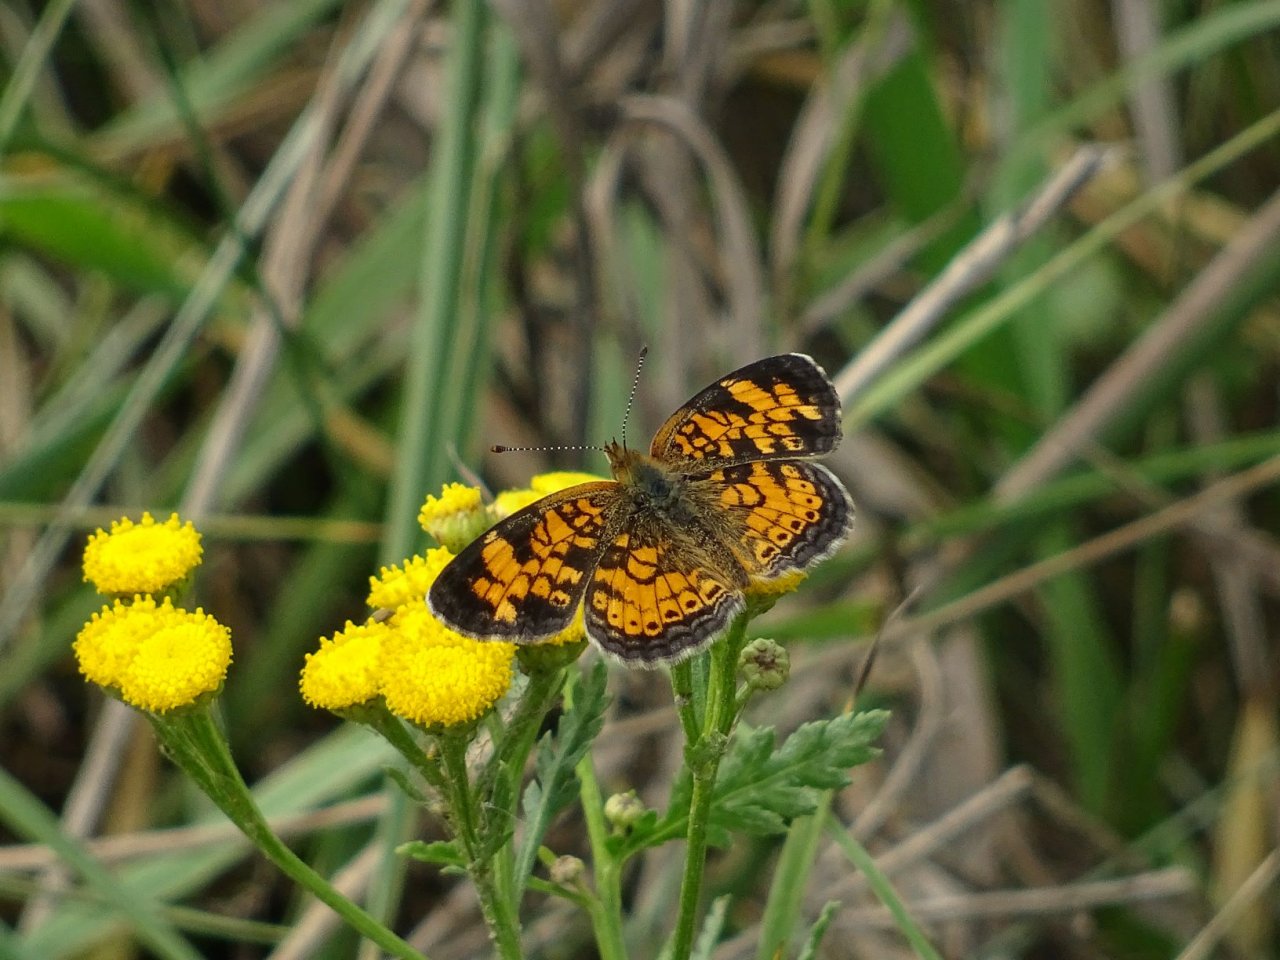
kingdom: Animalia
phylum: Arthropoda
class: Insecta
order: Lepidoptera
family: Nymphalidae
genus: Phyciodes
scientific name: Phyciodes tharos
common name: Pearl Crescent
